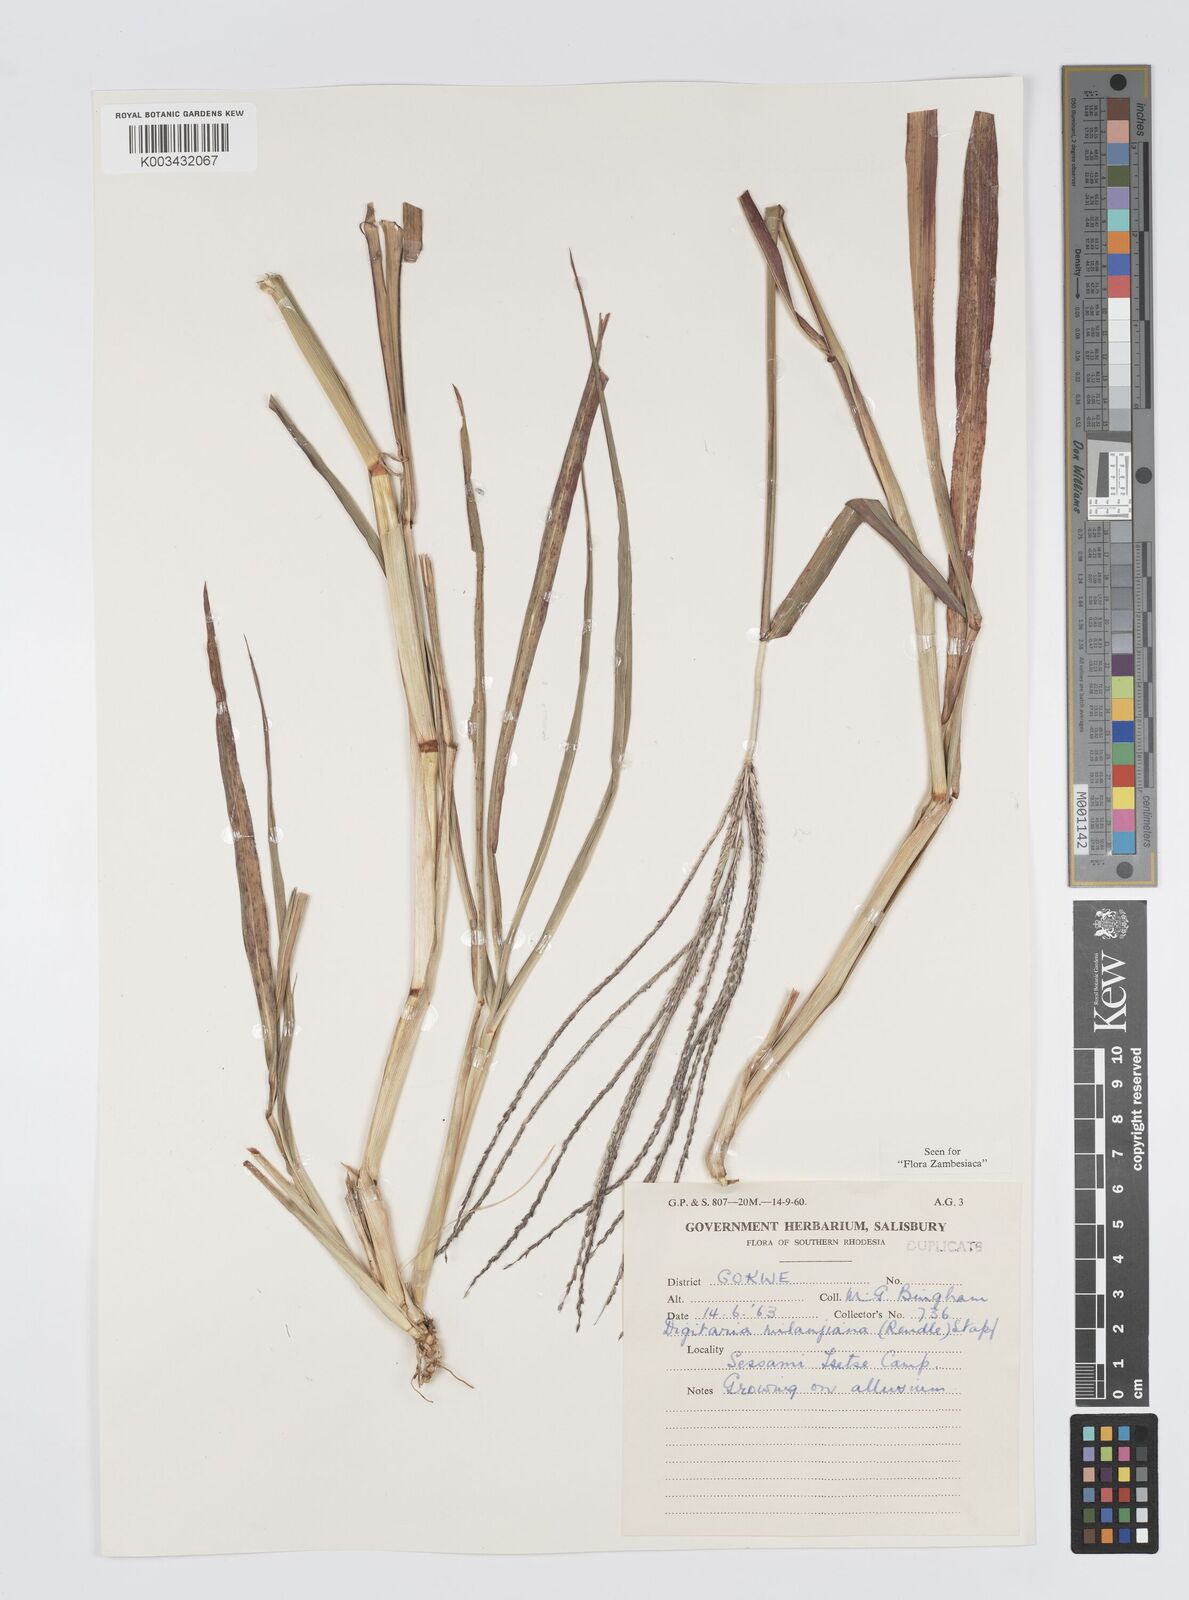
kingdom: Plantae
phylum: Tracheophyta
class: Liliopsida
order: Poales
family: Poaceae
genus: Digitaria
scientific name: Digitaria milanjiana
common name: Madagascar crabgrass
